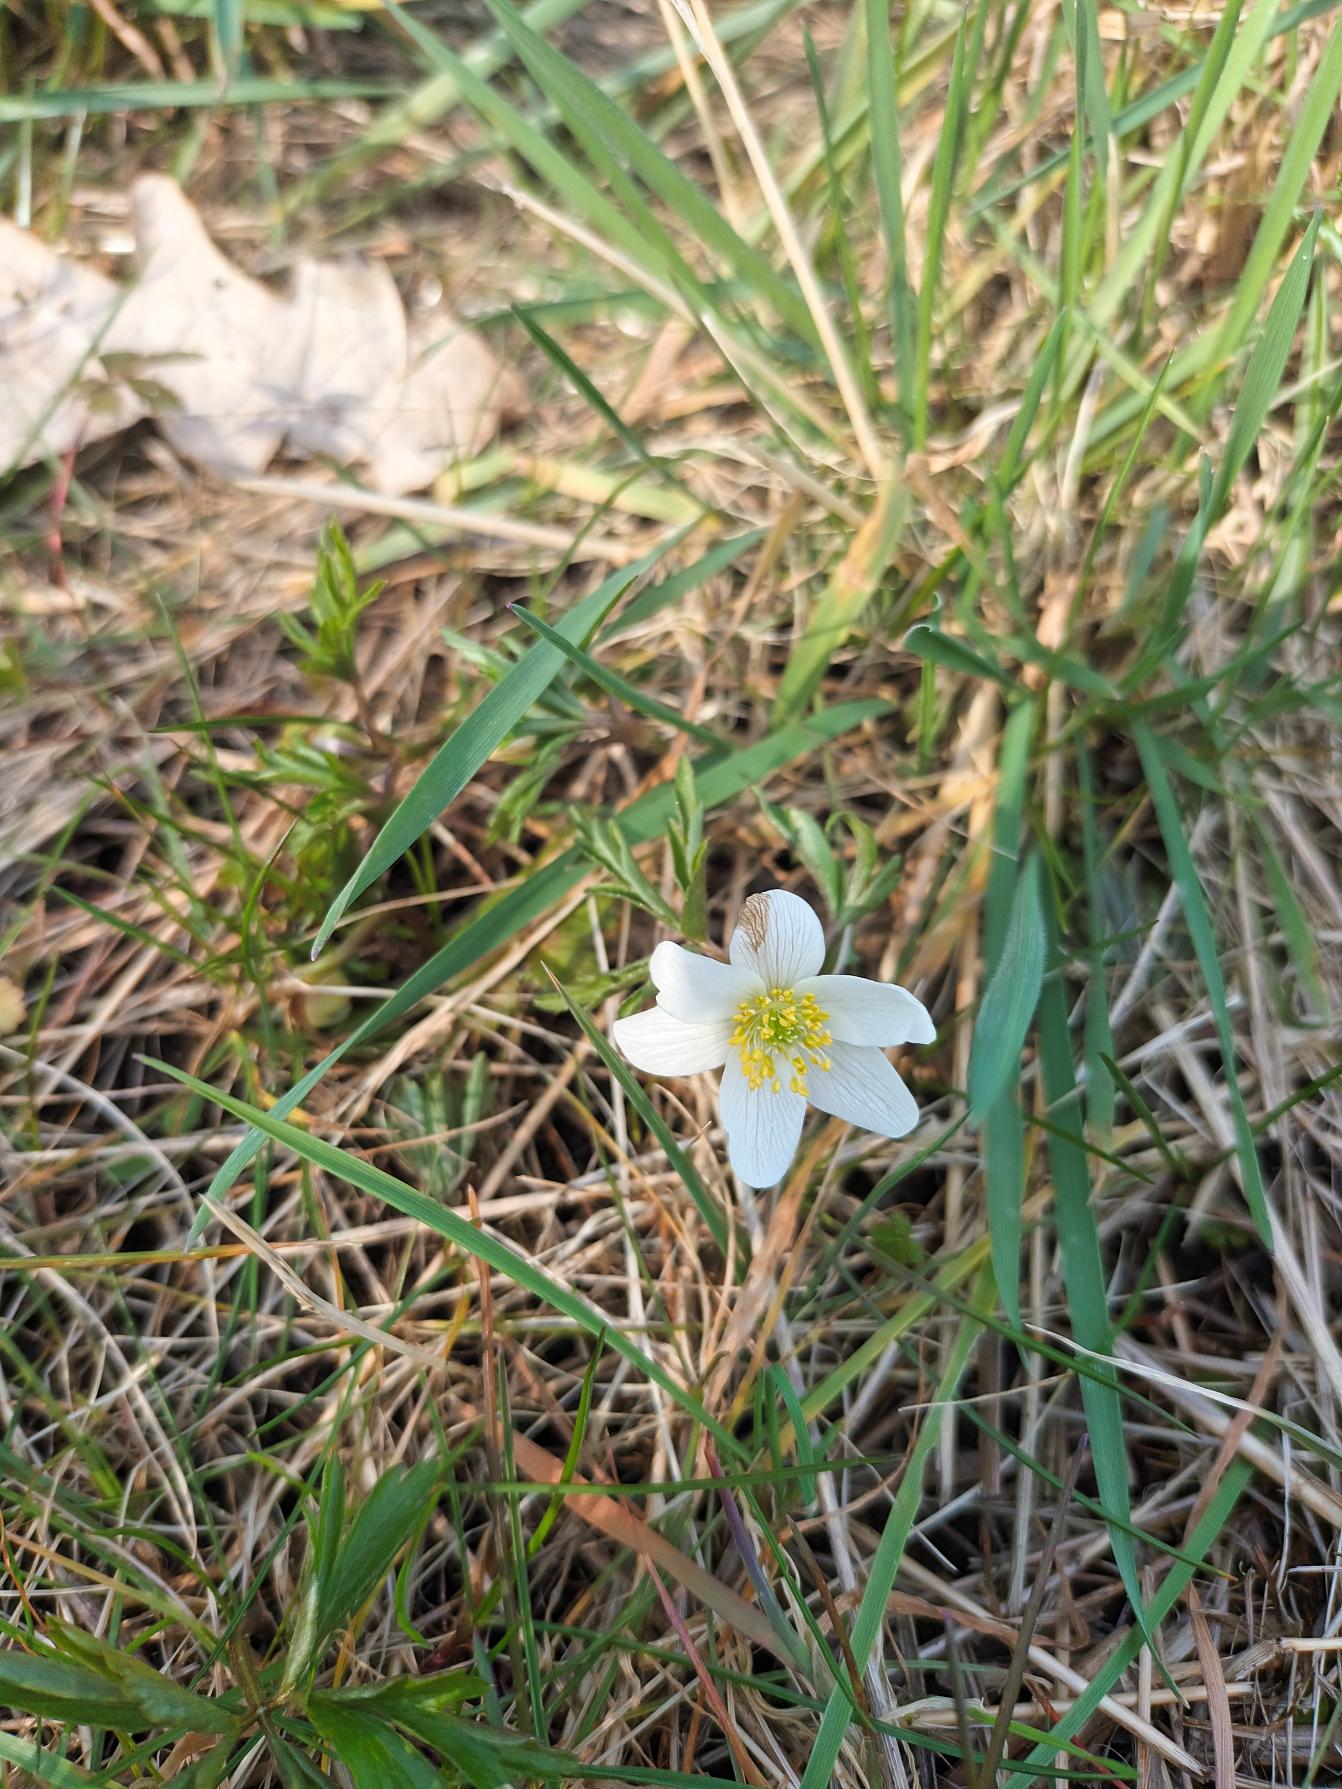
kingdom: Plantae
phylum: Tracheophyta
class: Magnoliopsida
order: Ranunculales
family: Ranunculaceae
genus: Anemone
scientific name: Anemone nemorosa
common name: Hvid anemone
